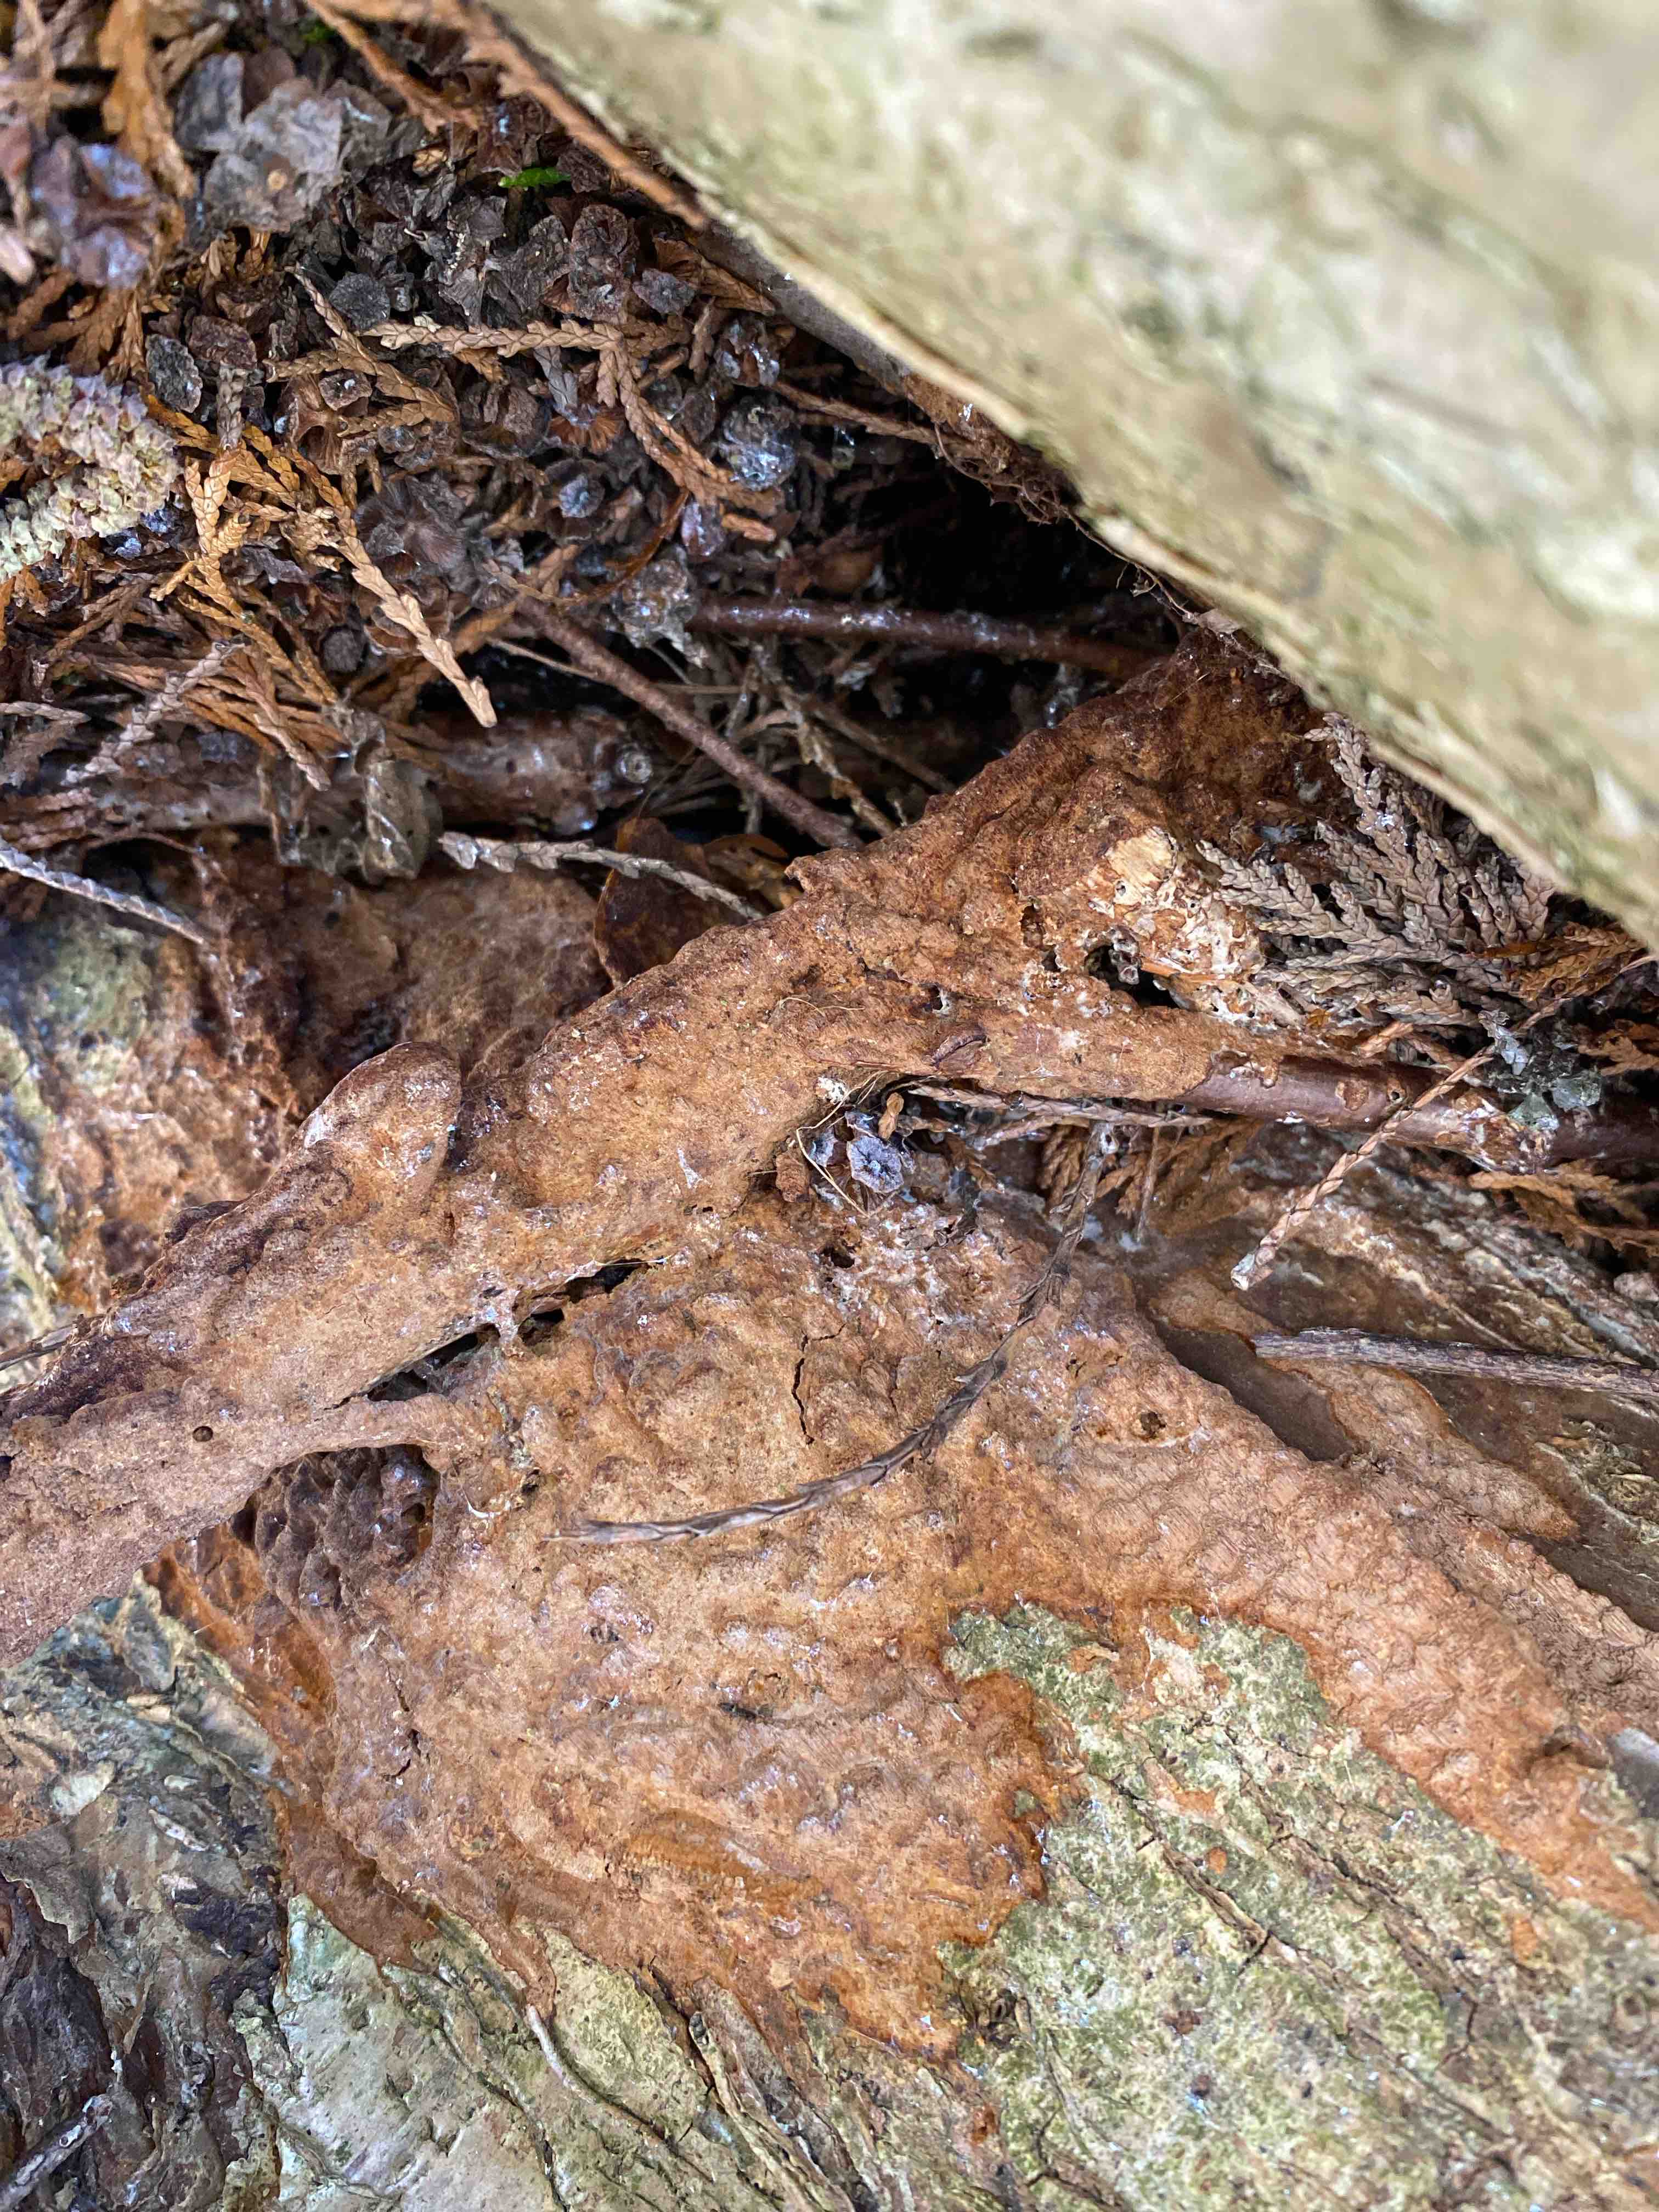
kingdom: Fungi
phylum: Basidiomycota
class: Agaricomycetes
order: Hymenochaetales
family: Hymenochaetaceae
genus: Fuscoporia
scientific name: Fuscoporia ferrea
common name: skorpe-ildporesvamp
